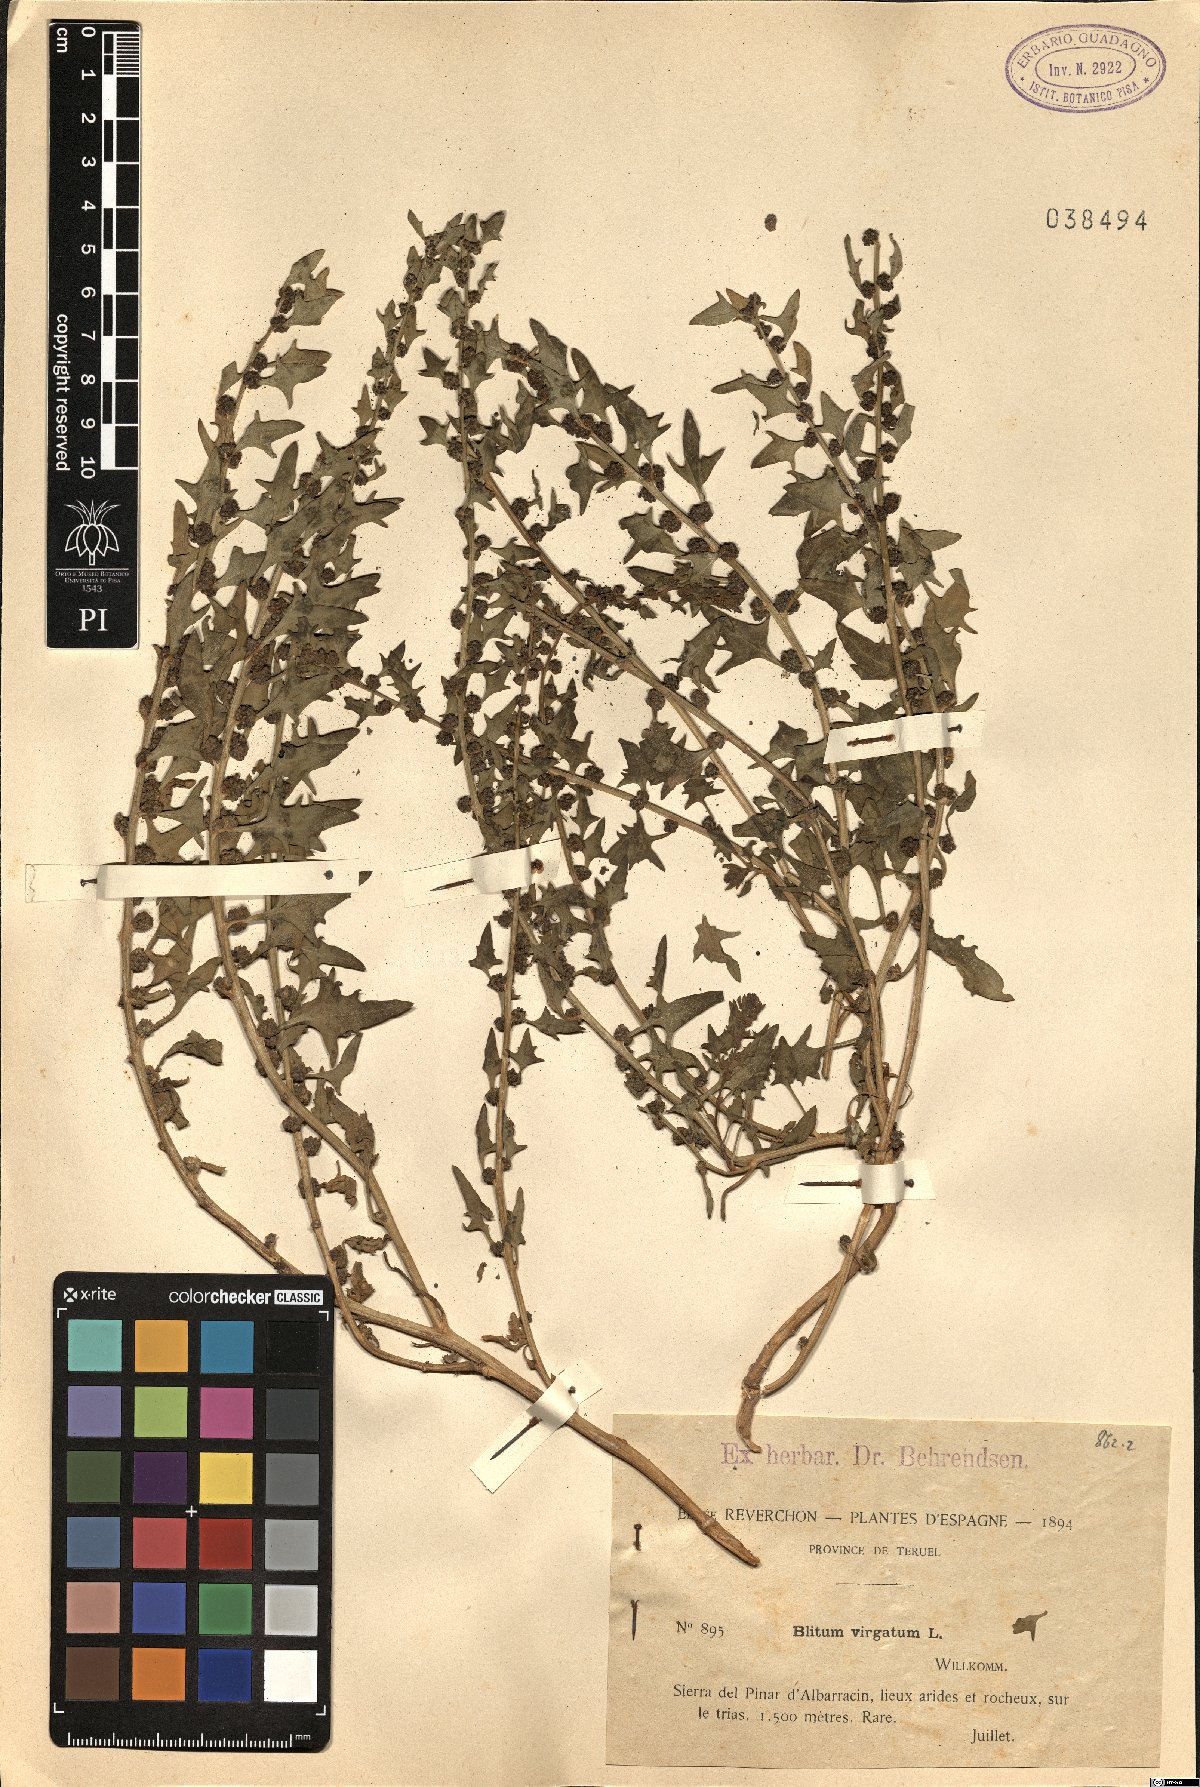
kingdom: Plantae
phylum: Tracheophyta
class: Magnoliopsida
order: Caryophyllales
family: Amaranthaceae
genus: Blitum
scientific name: Blitum virgatum
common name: Strawberry goosefoot
